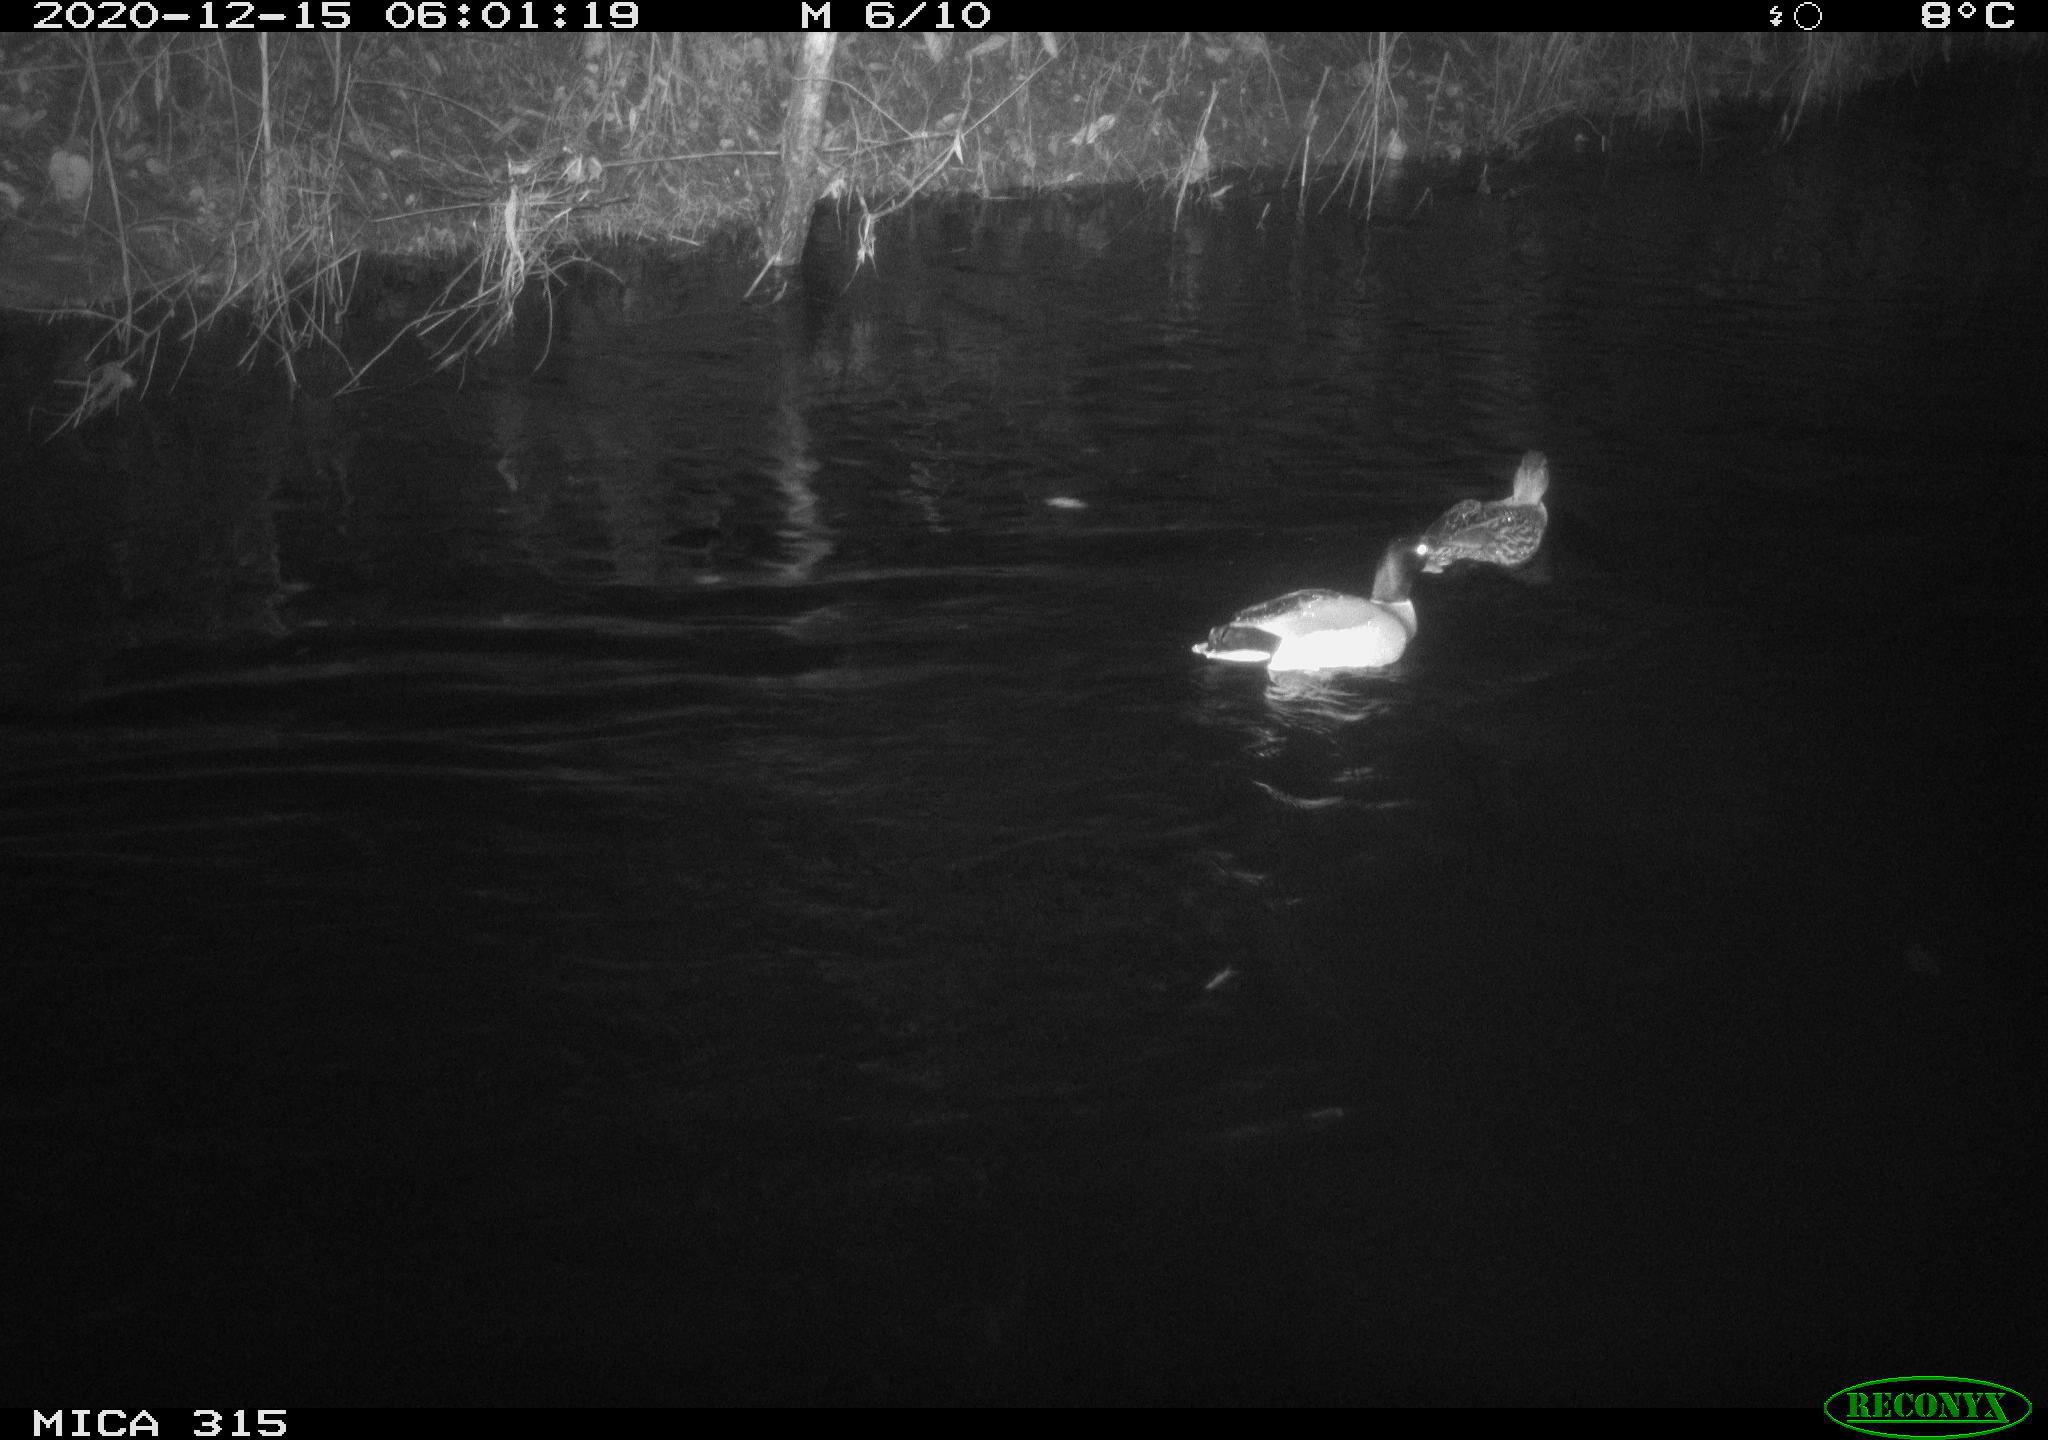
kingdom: Animalia
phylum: Chordata
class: Aves
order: Anseriformes
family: Anatidae
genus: Anas
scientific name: Anas platyrhynchos
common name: Mallard
